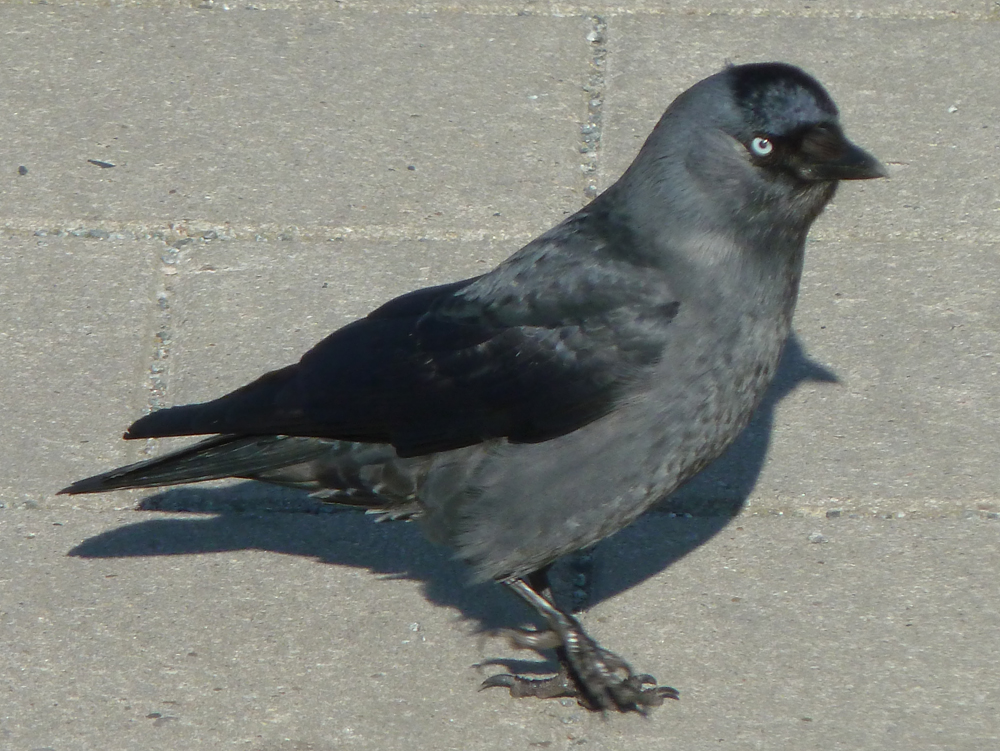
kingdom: Animalia
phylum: Chordata
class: Aves
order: Passeriformes
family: Corvidae
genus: Coloeus
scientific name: Coloeus monedula
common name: Western jackdaw
